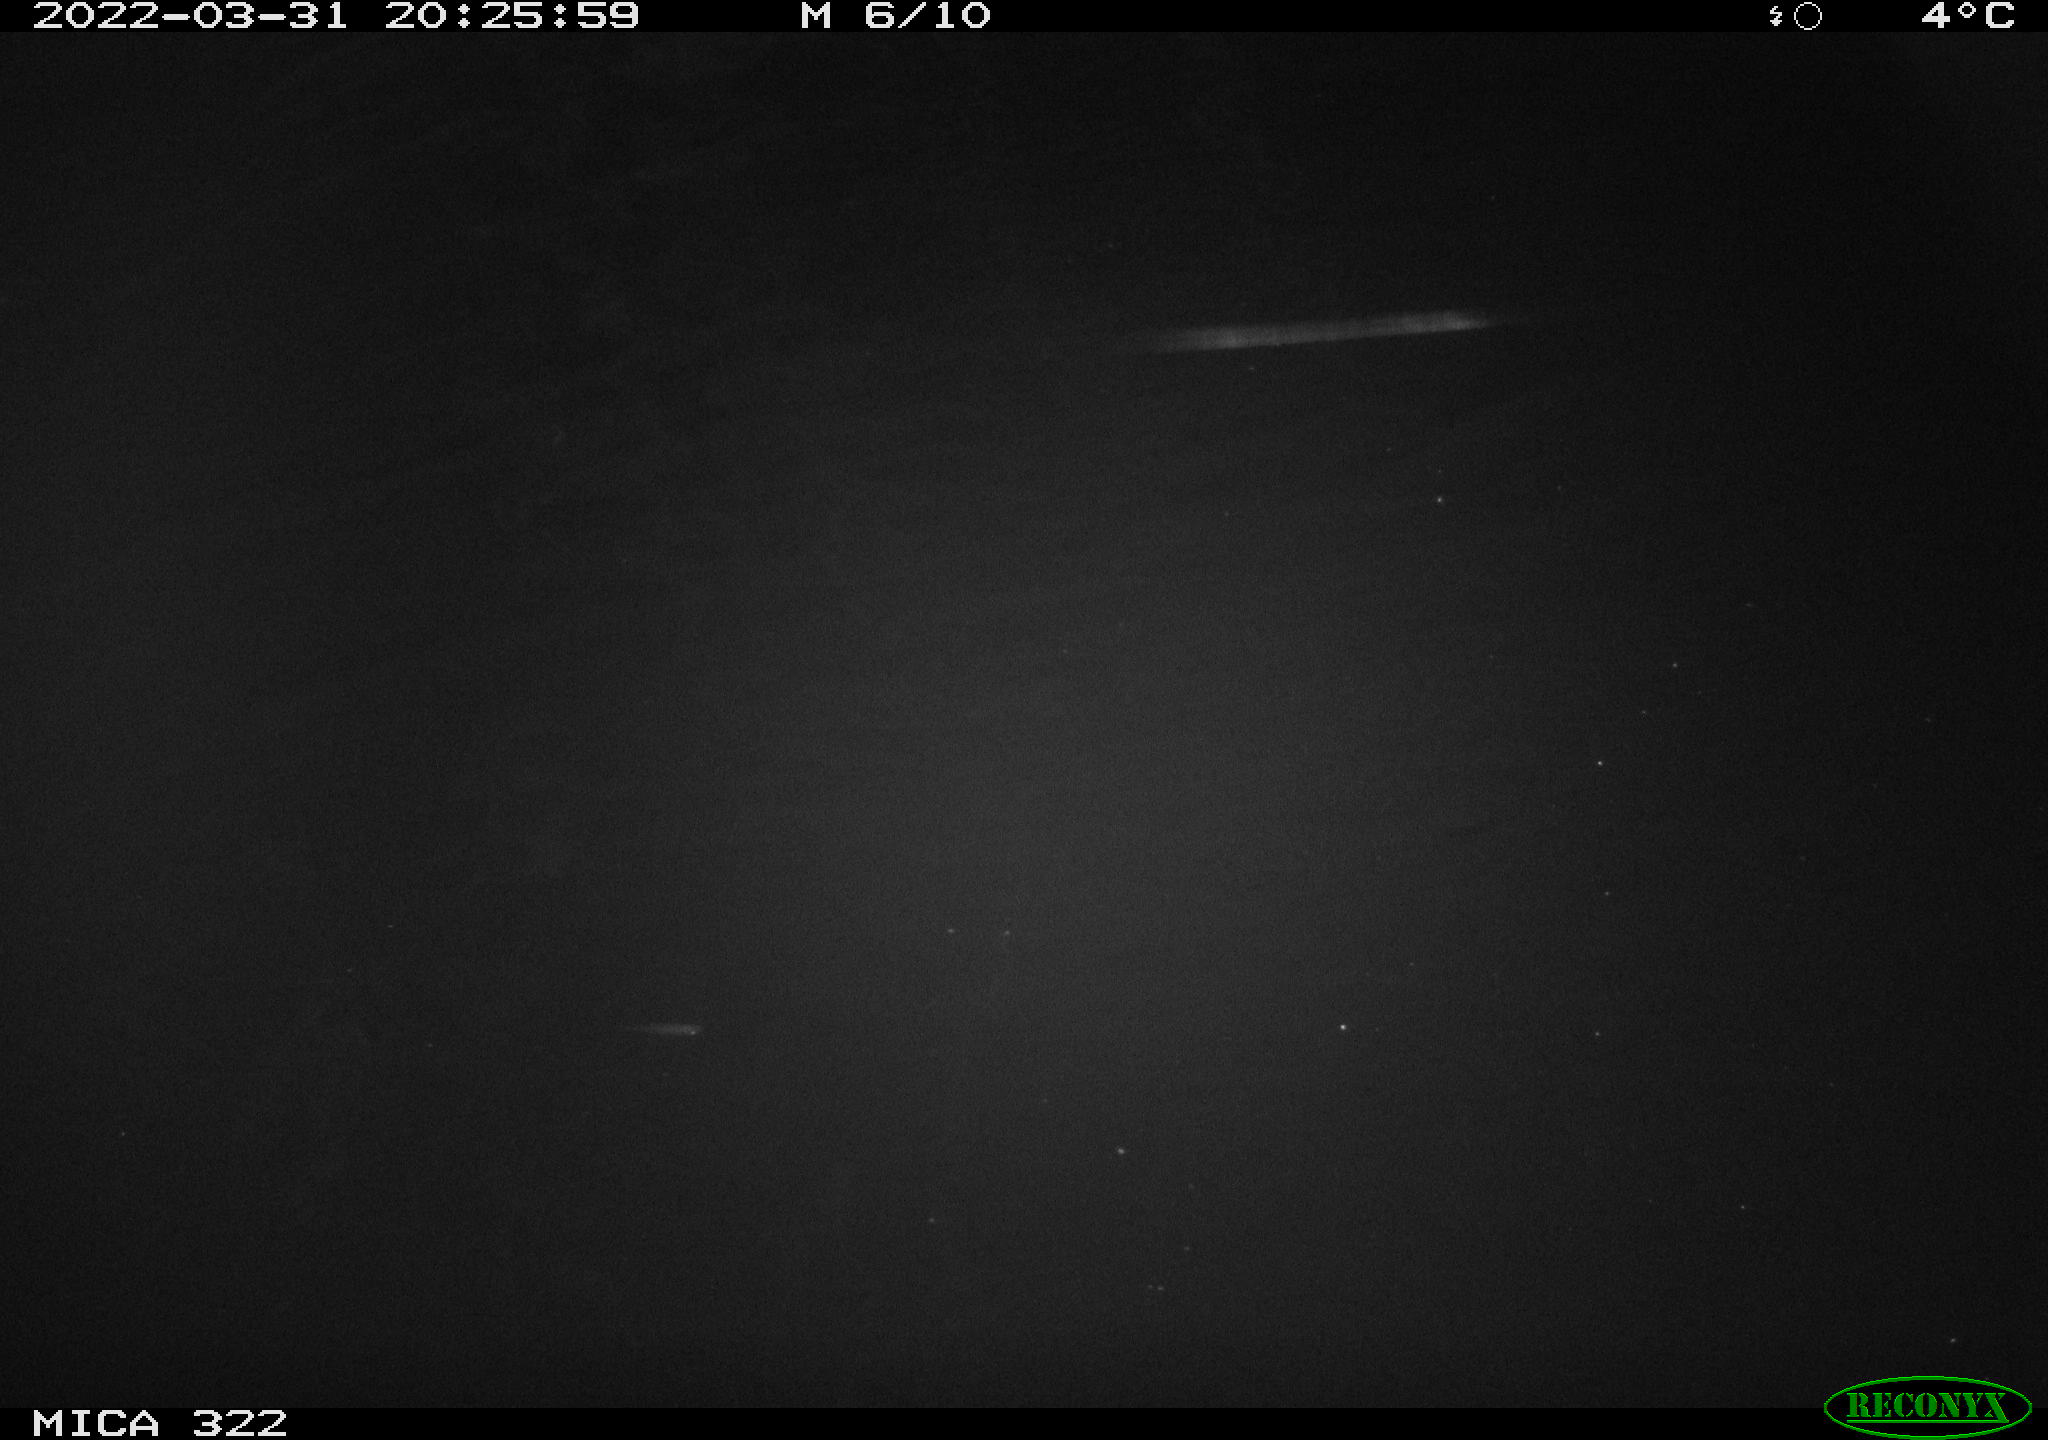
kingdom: Animalia
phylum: Chordata
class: Mammalia
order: Carnivora
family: Mustelidae
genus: Mustela
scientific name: Mustela putorius
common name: European polecat
